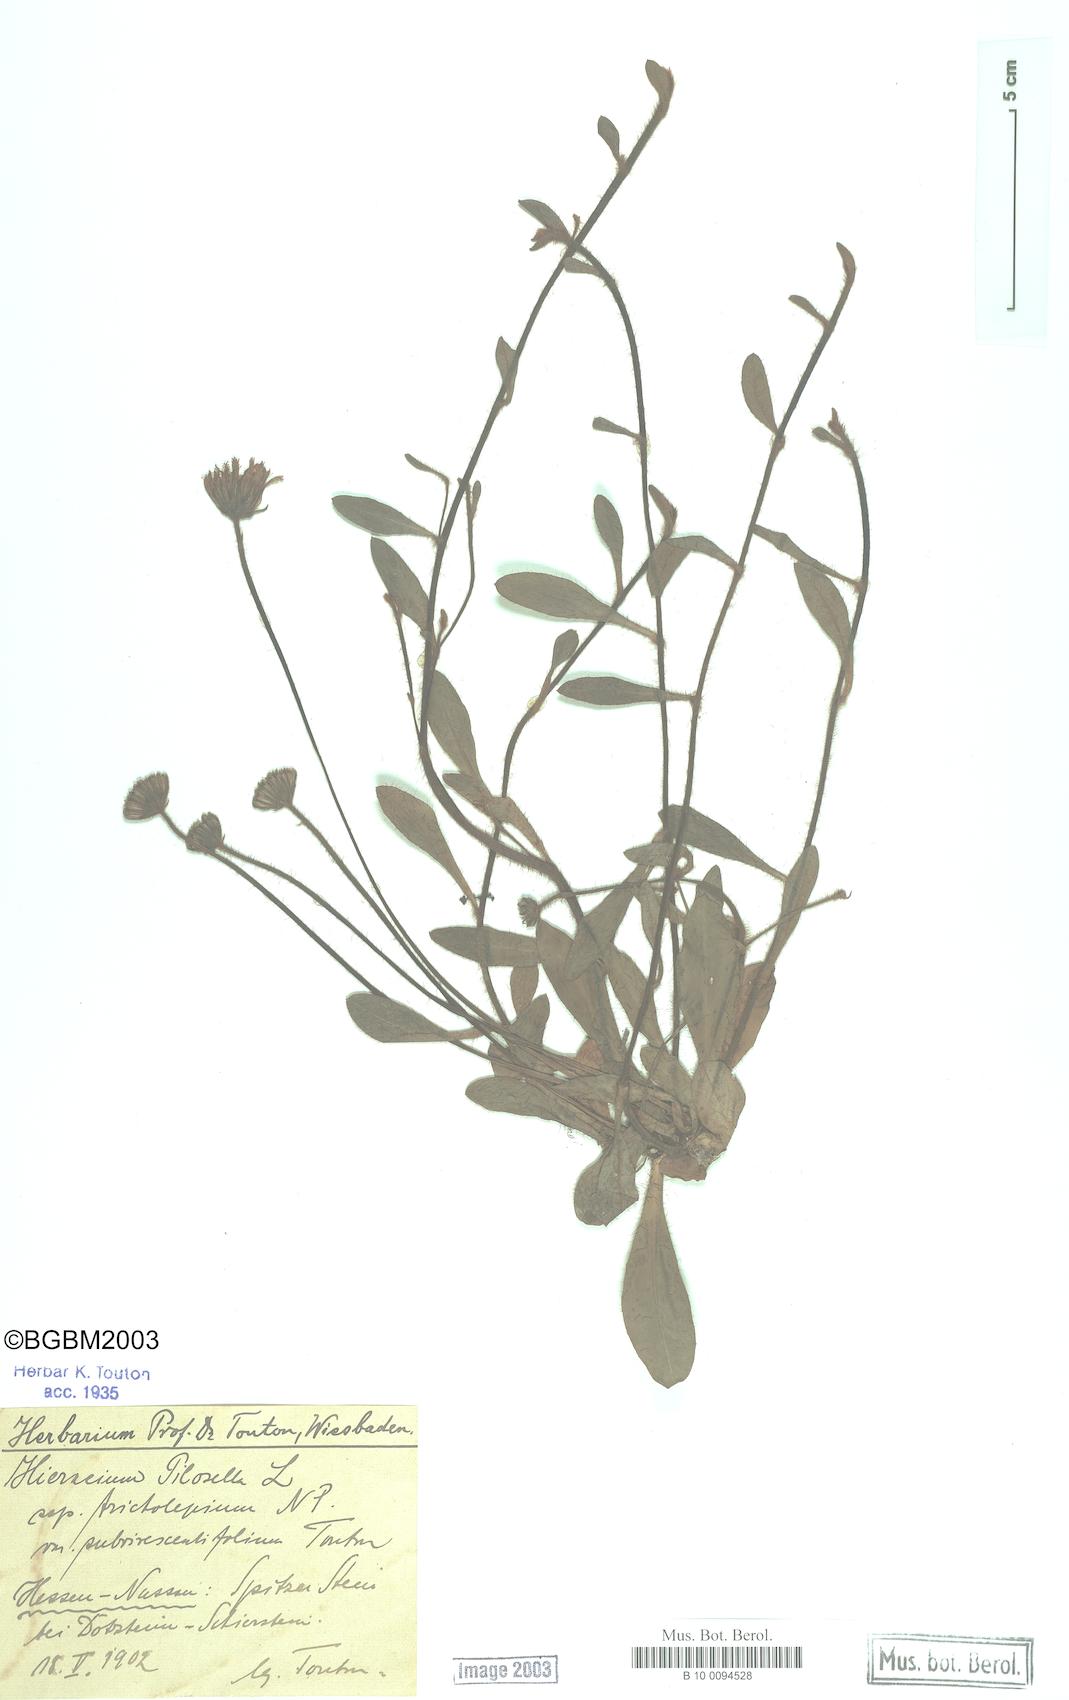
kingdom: Plantae
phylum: Tracheophyta
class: Magnoliopsida
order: Asterales
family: Asteraceae
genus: Pilosella
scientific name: Pilosella officinarum
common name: Mouse-ear hawkweed
